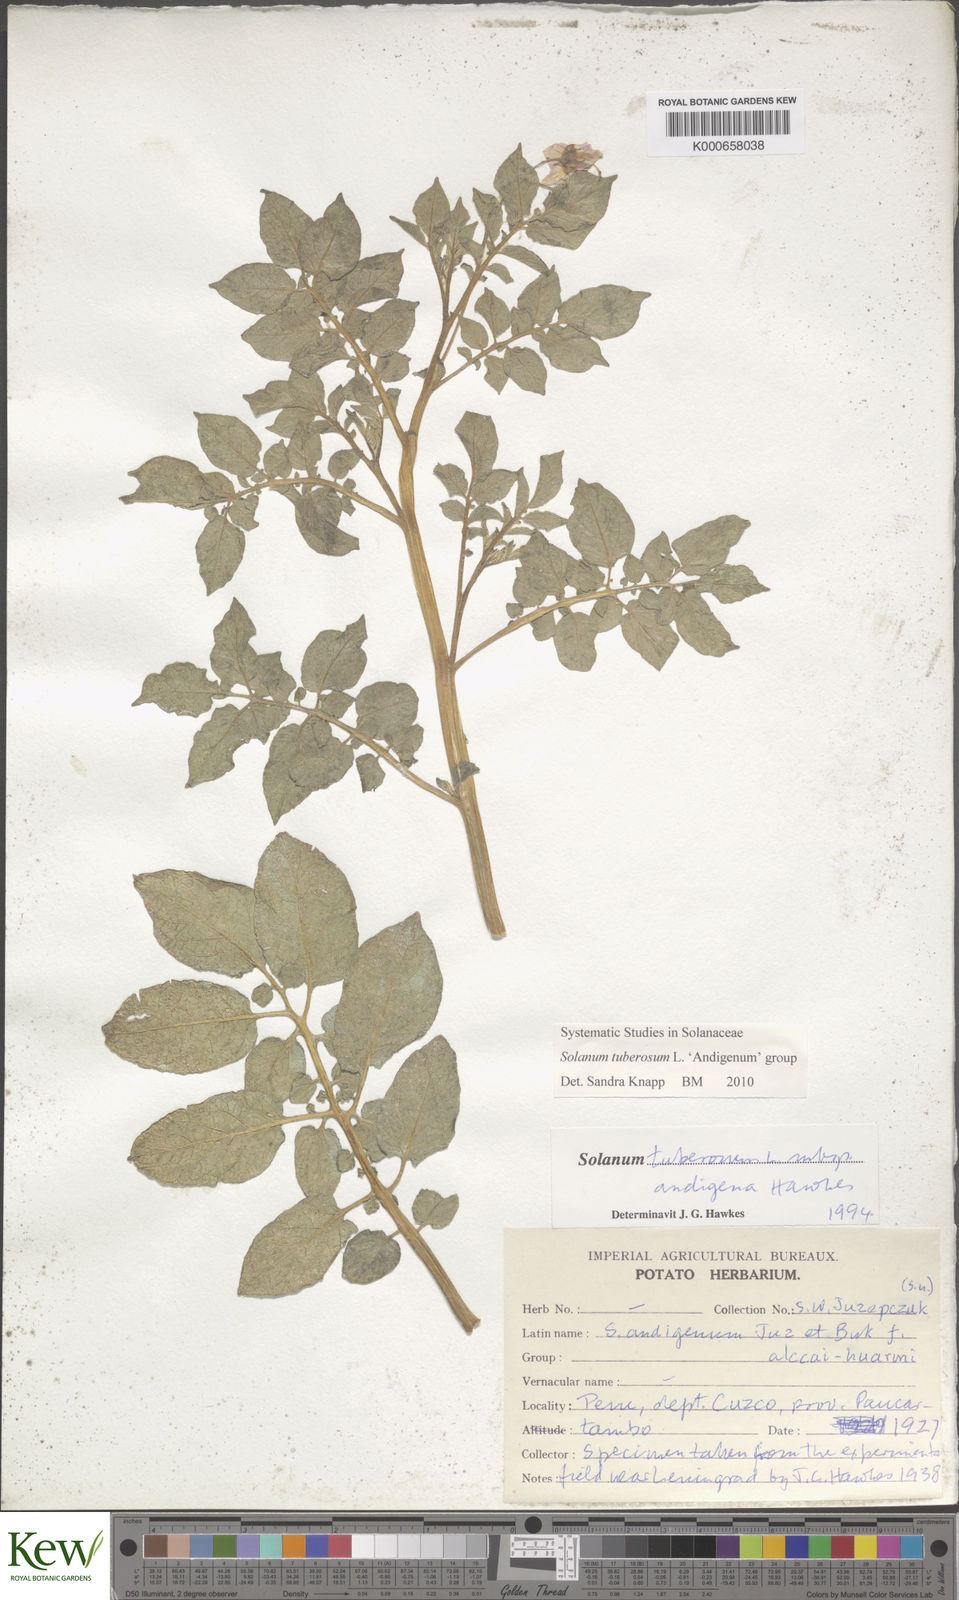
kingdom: Plantae
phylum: Tracheophyta
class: Magnoliopsida
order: Solanales
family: Solanaceae
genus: Solanum
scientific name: Solanum tuberosum
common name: Potato
